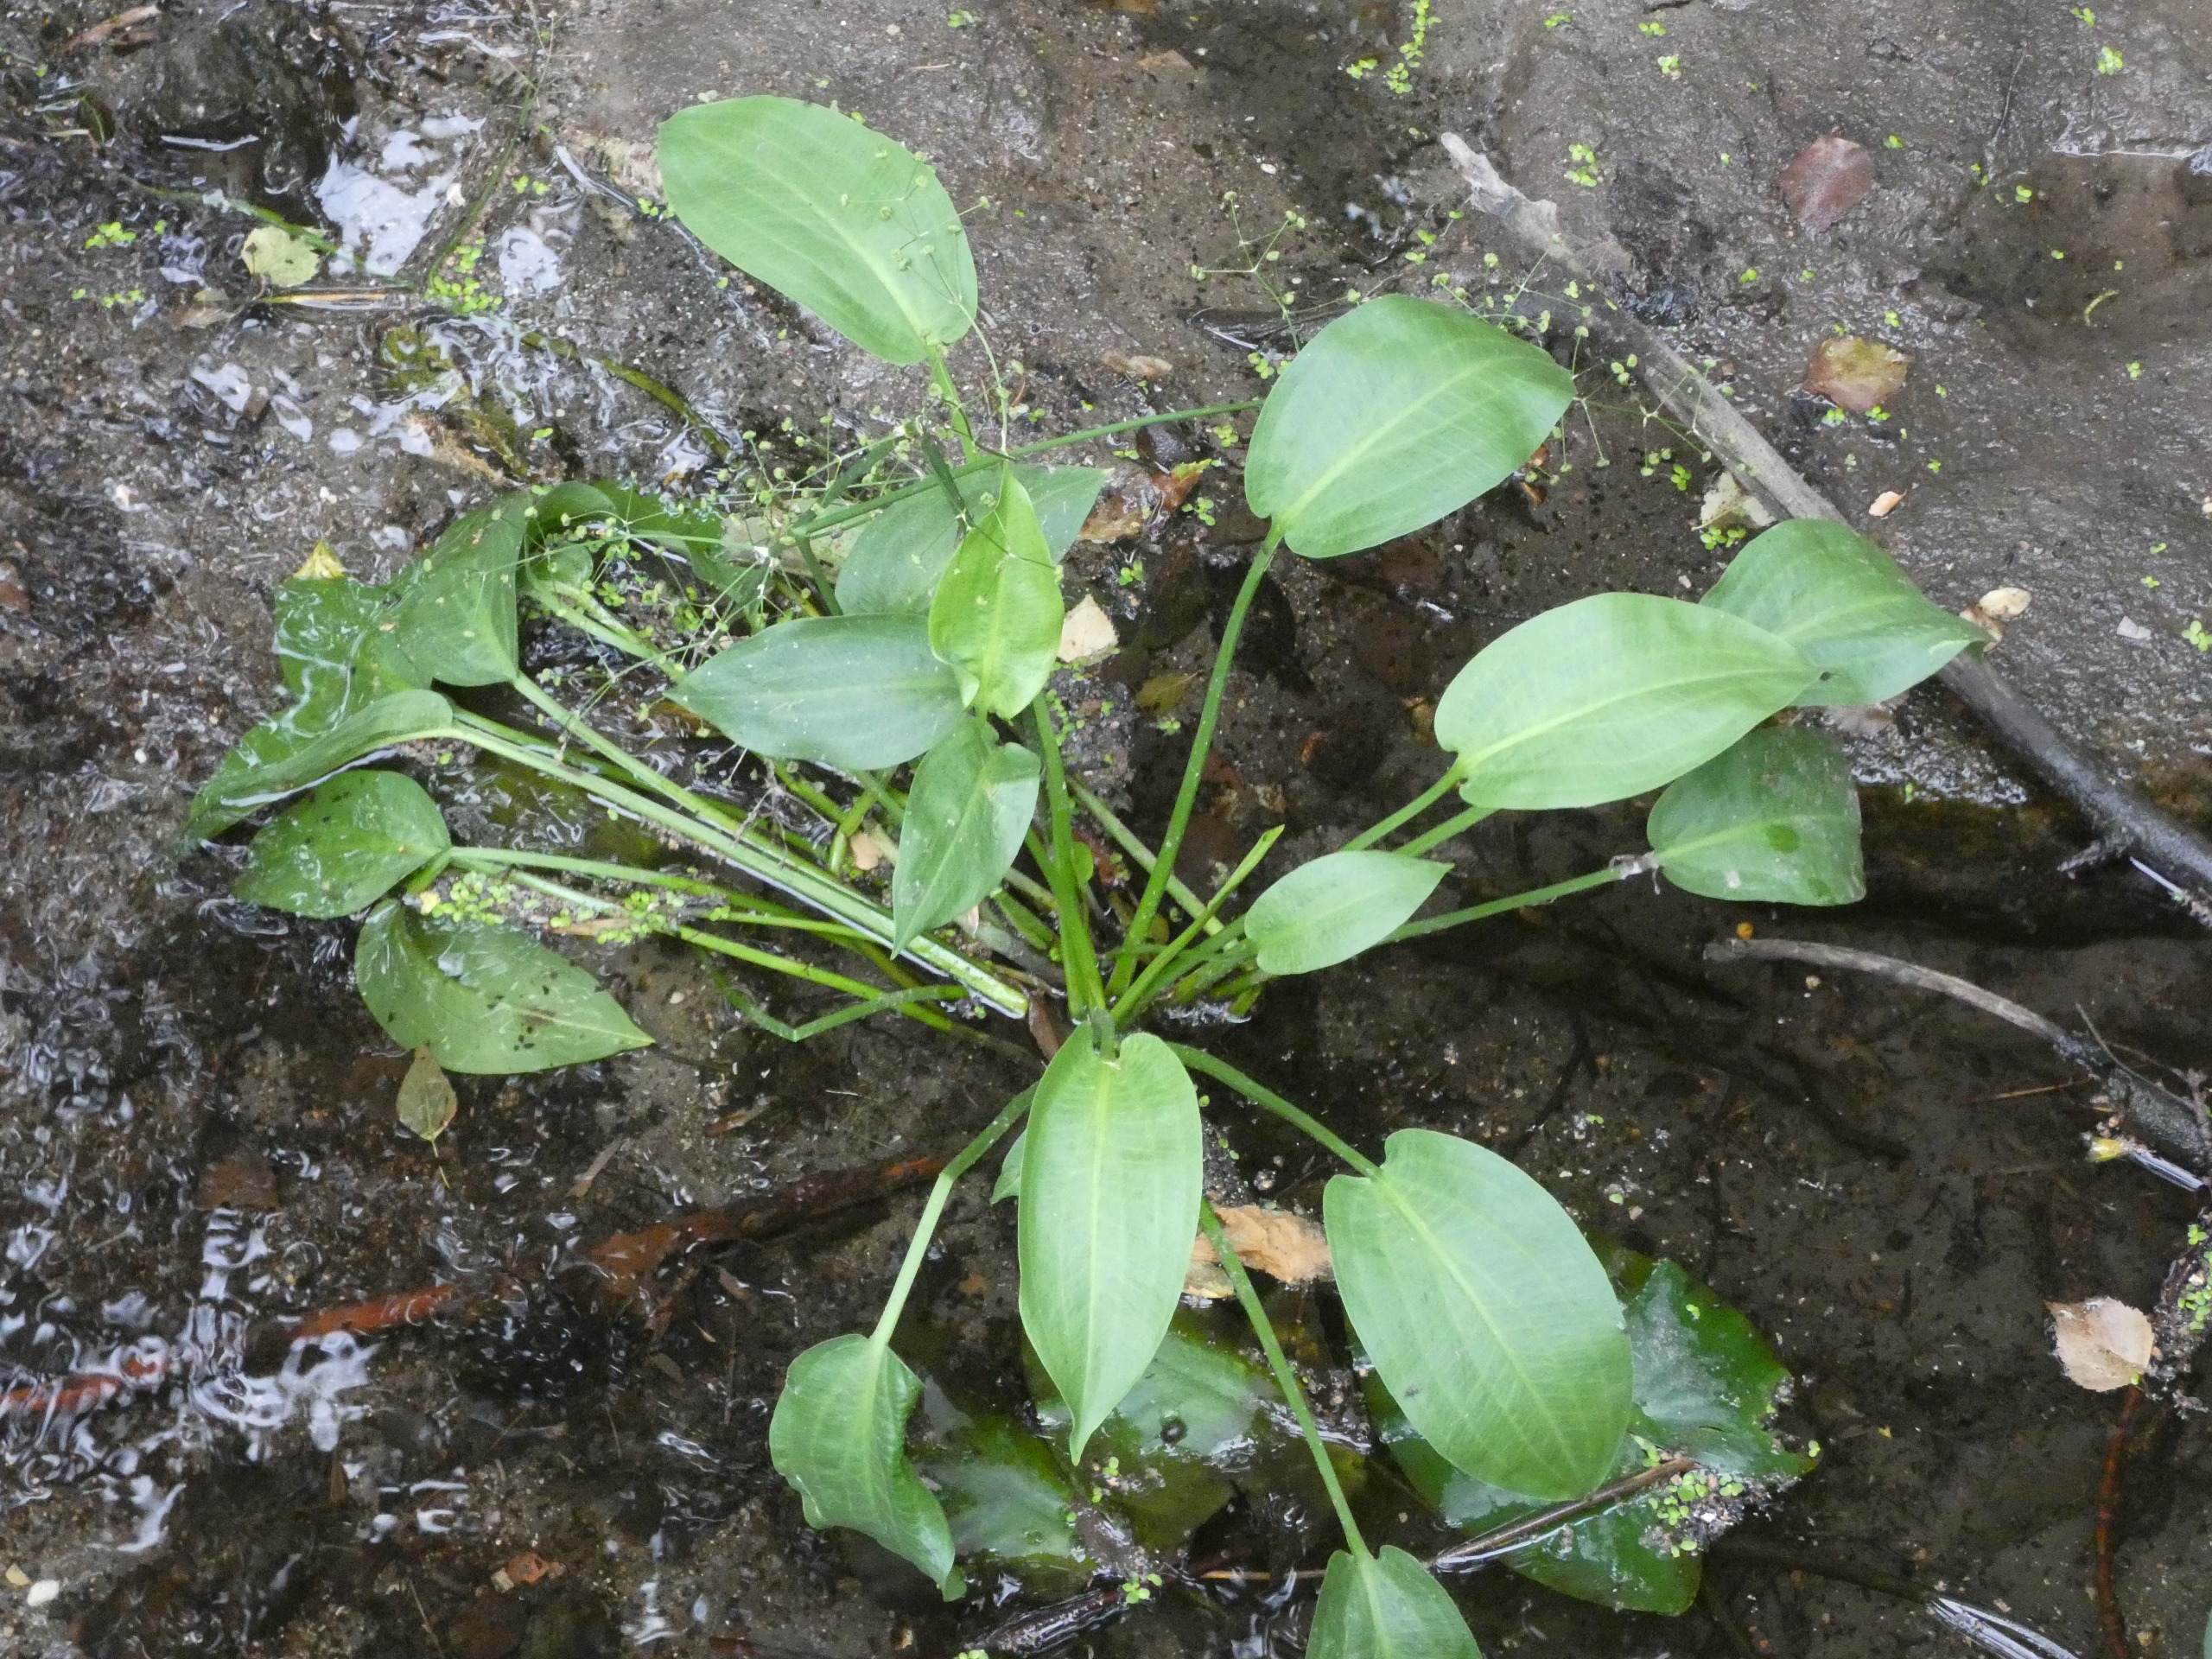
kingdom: Plantae
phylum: Tracheophyta
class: Liliopsida
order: Alismatales
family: Alismataceae
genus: Alisma
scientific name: Alisma plantago-aquatica
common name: Vejbred-skeblad
